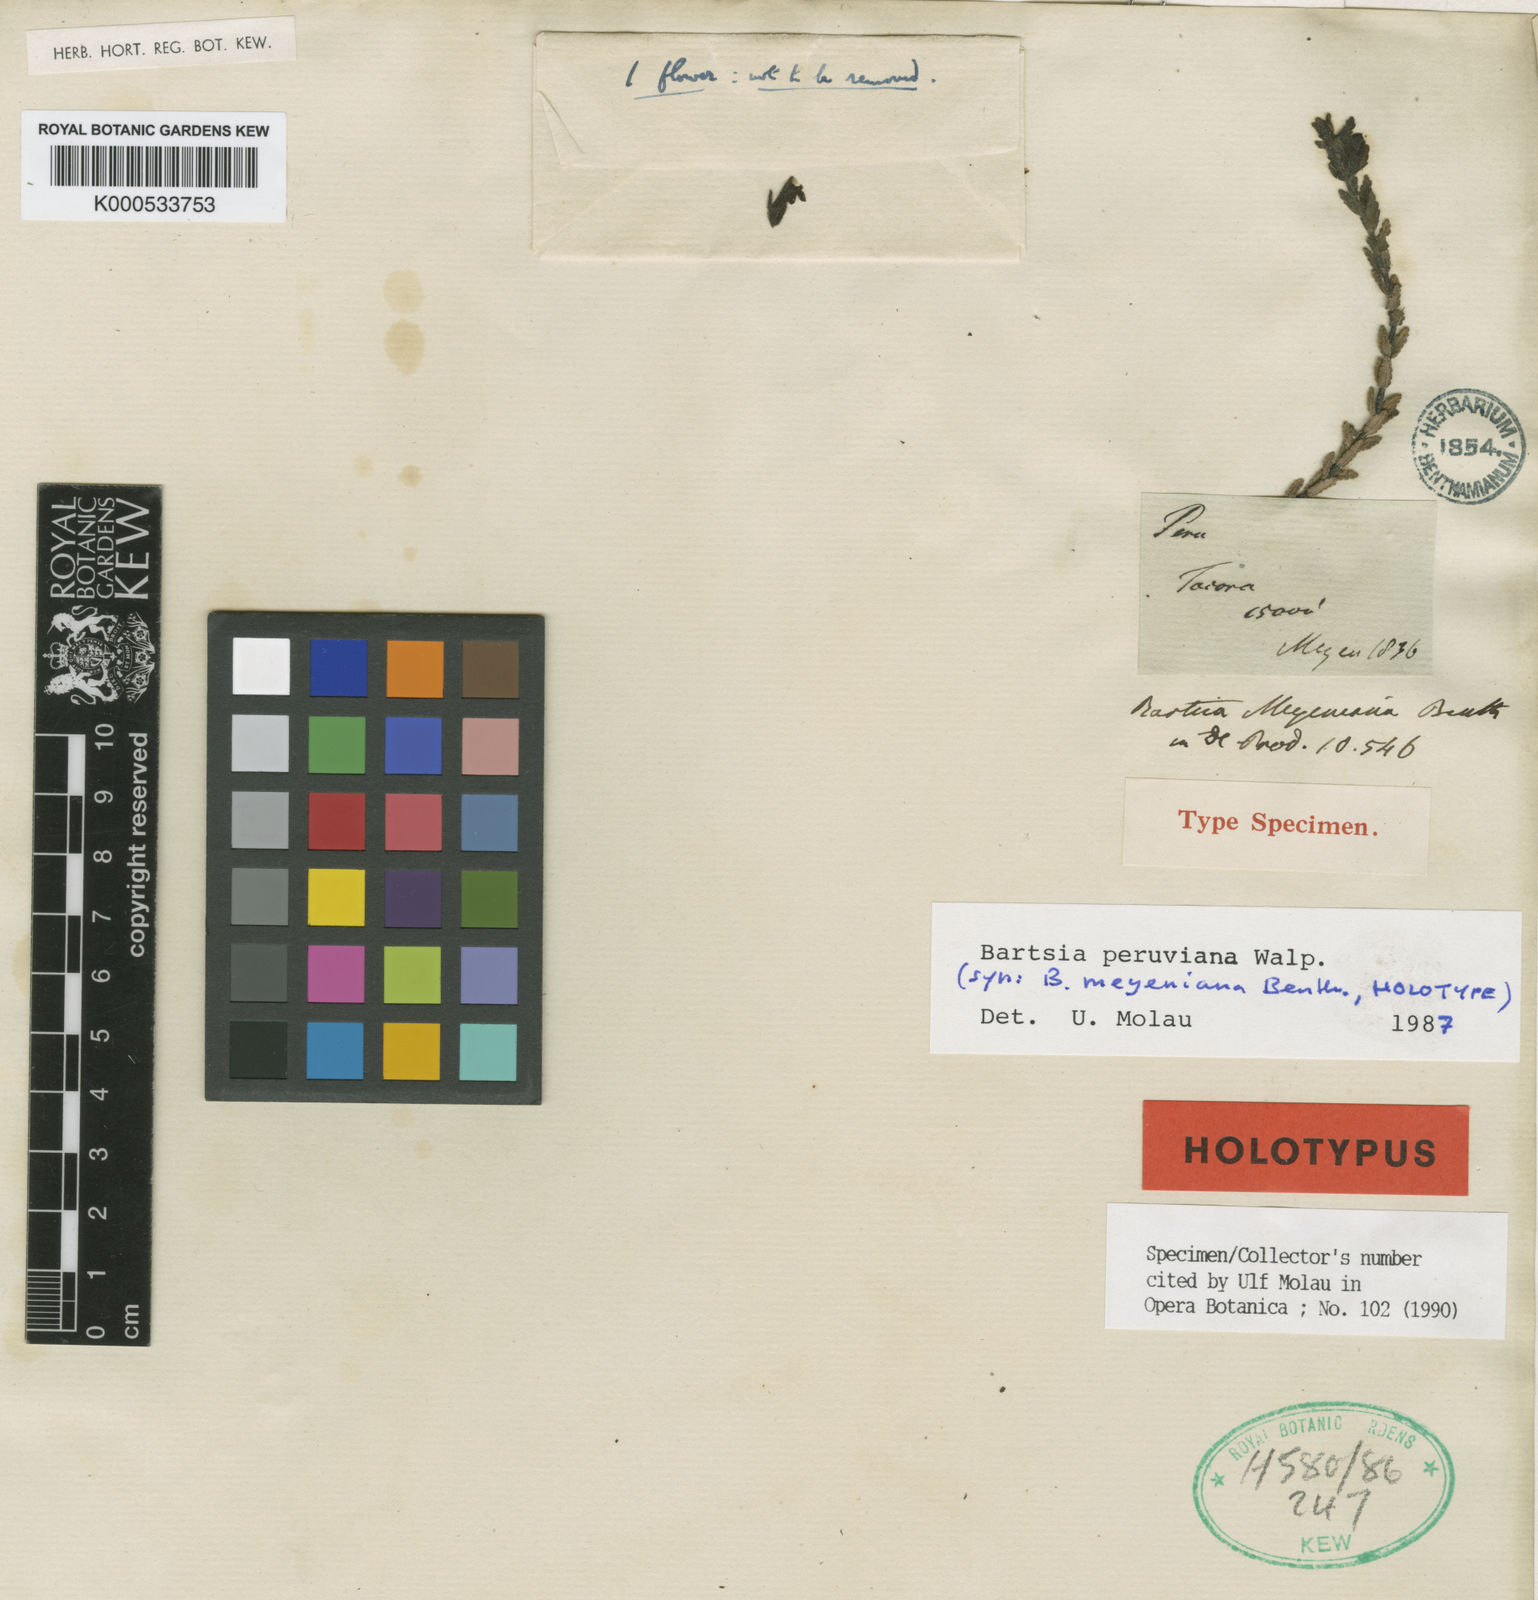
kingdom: Plantae
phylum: Tracheophyta
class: Magnoliopsida
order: Lamiales
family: Orobanchaceae
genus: Neobartsia
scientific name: Neobartsia peruviana
